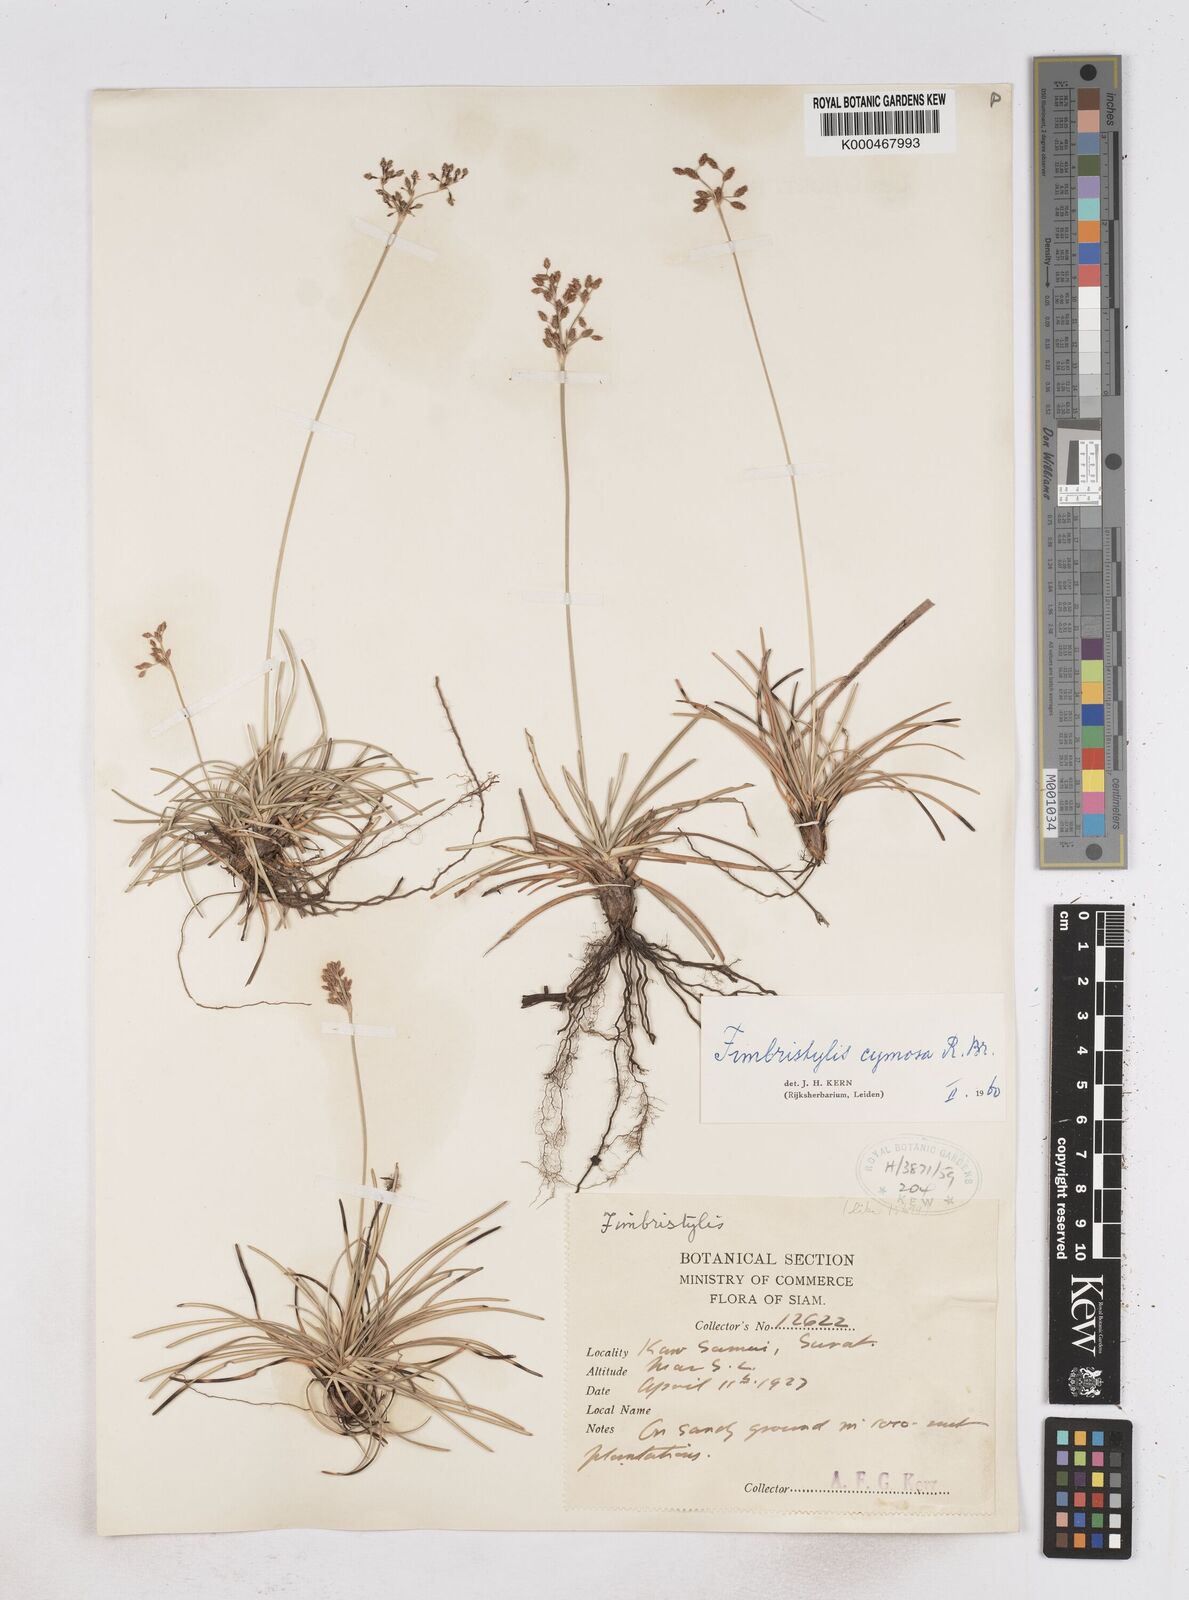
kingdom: Plantae
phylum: Tracheophyta
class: Liliopsida
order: Poales
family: Cyperaceae
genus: Fimbristylis
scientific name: Fimbristylis cymosa
